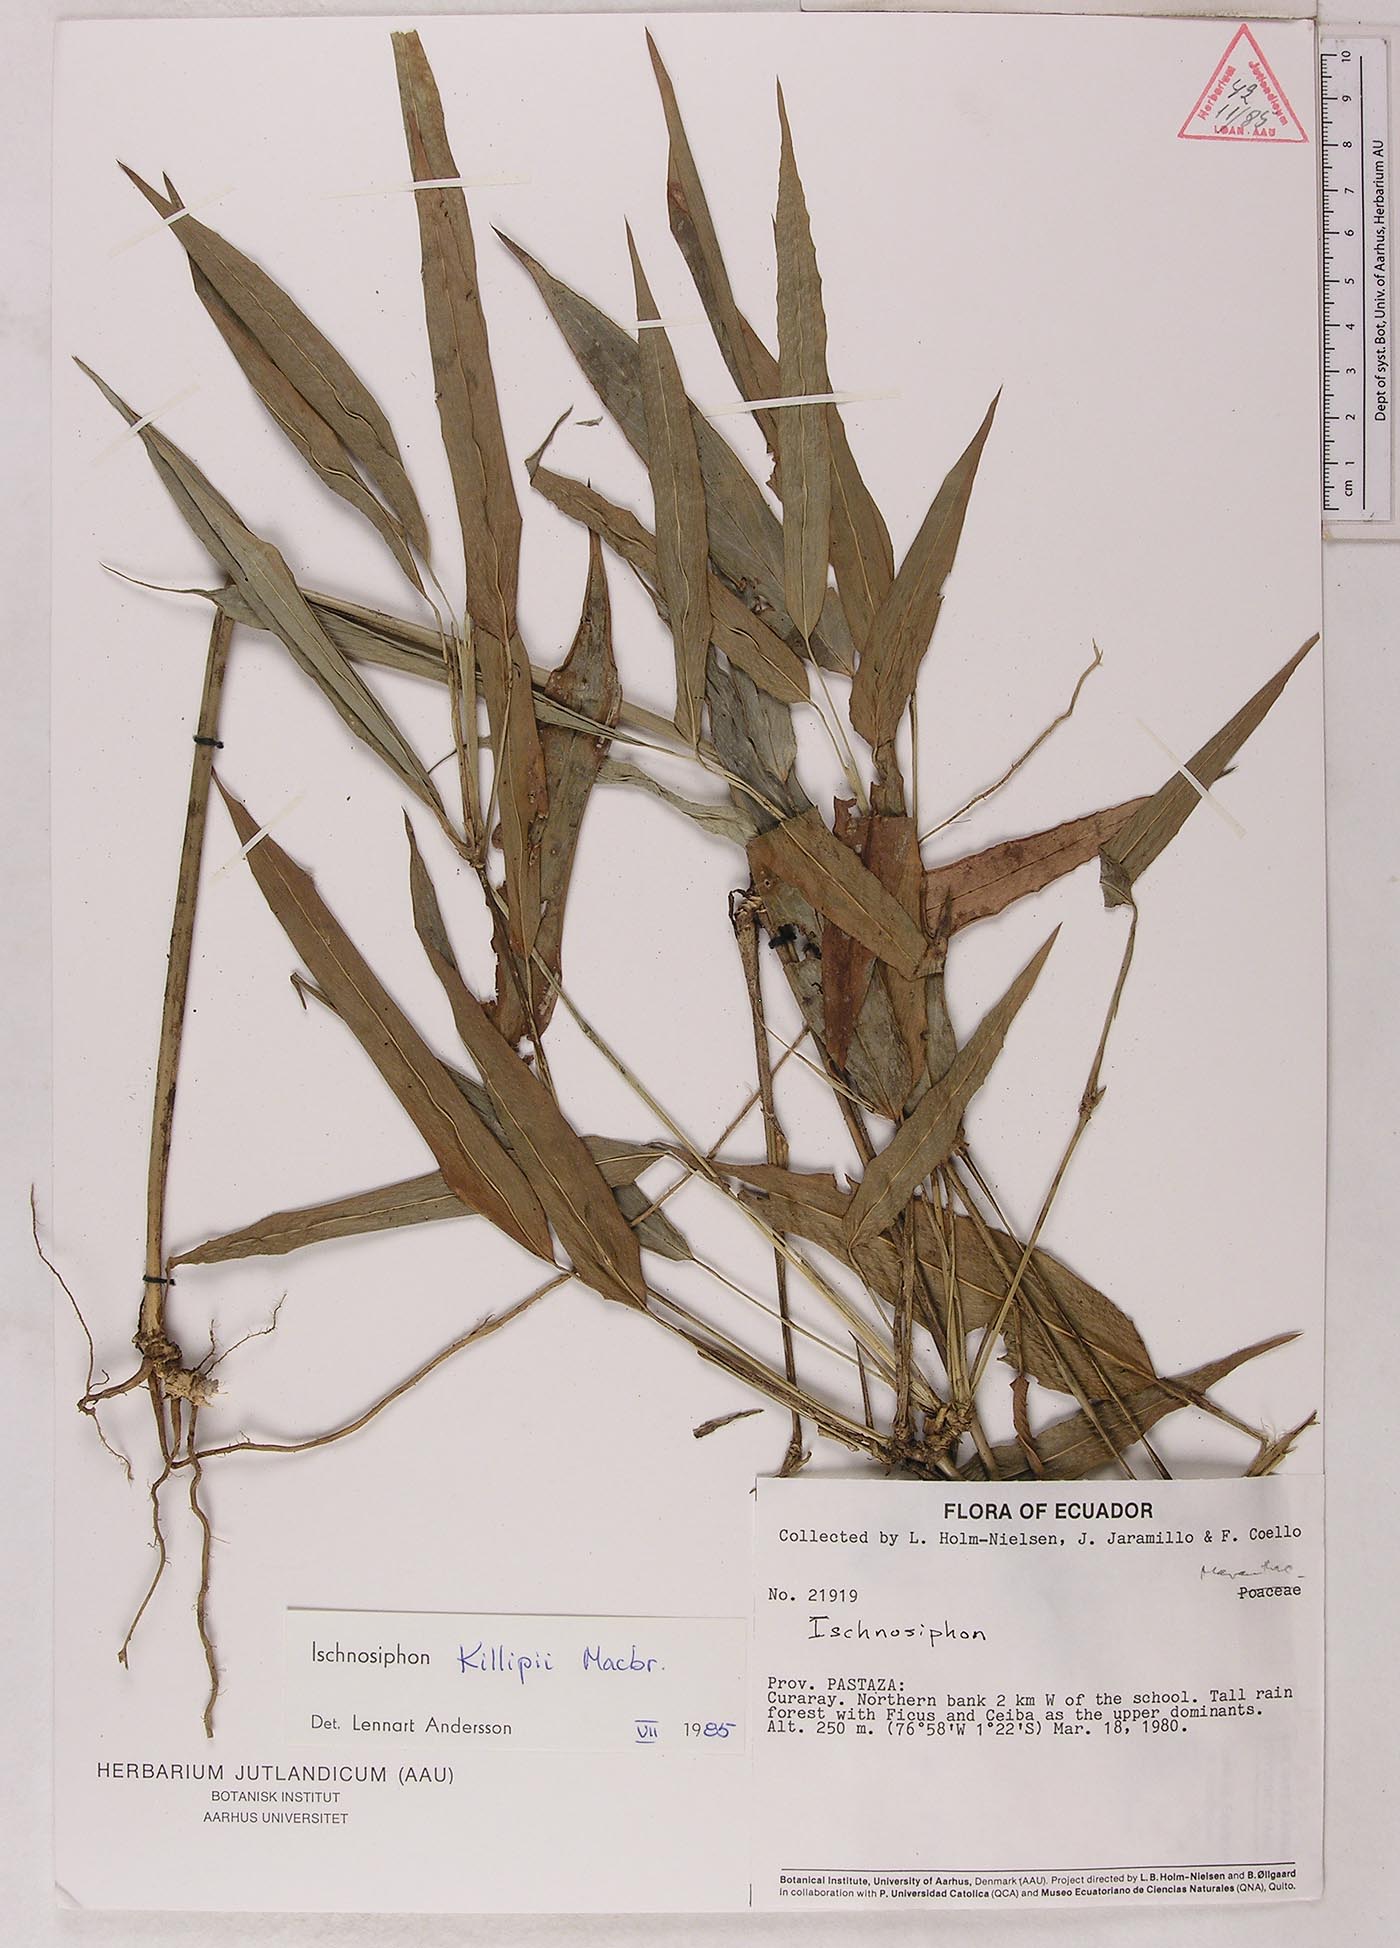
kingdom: Plantae
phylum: Tracheophyta
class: Liliopsida
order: Zingiberales
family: Marantaceae
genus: Ischnosiphon
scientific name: Ischnosiphon killipii
